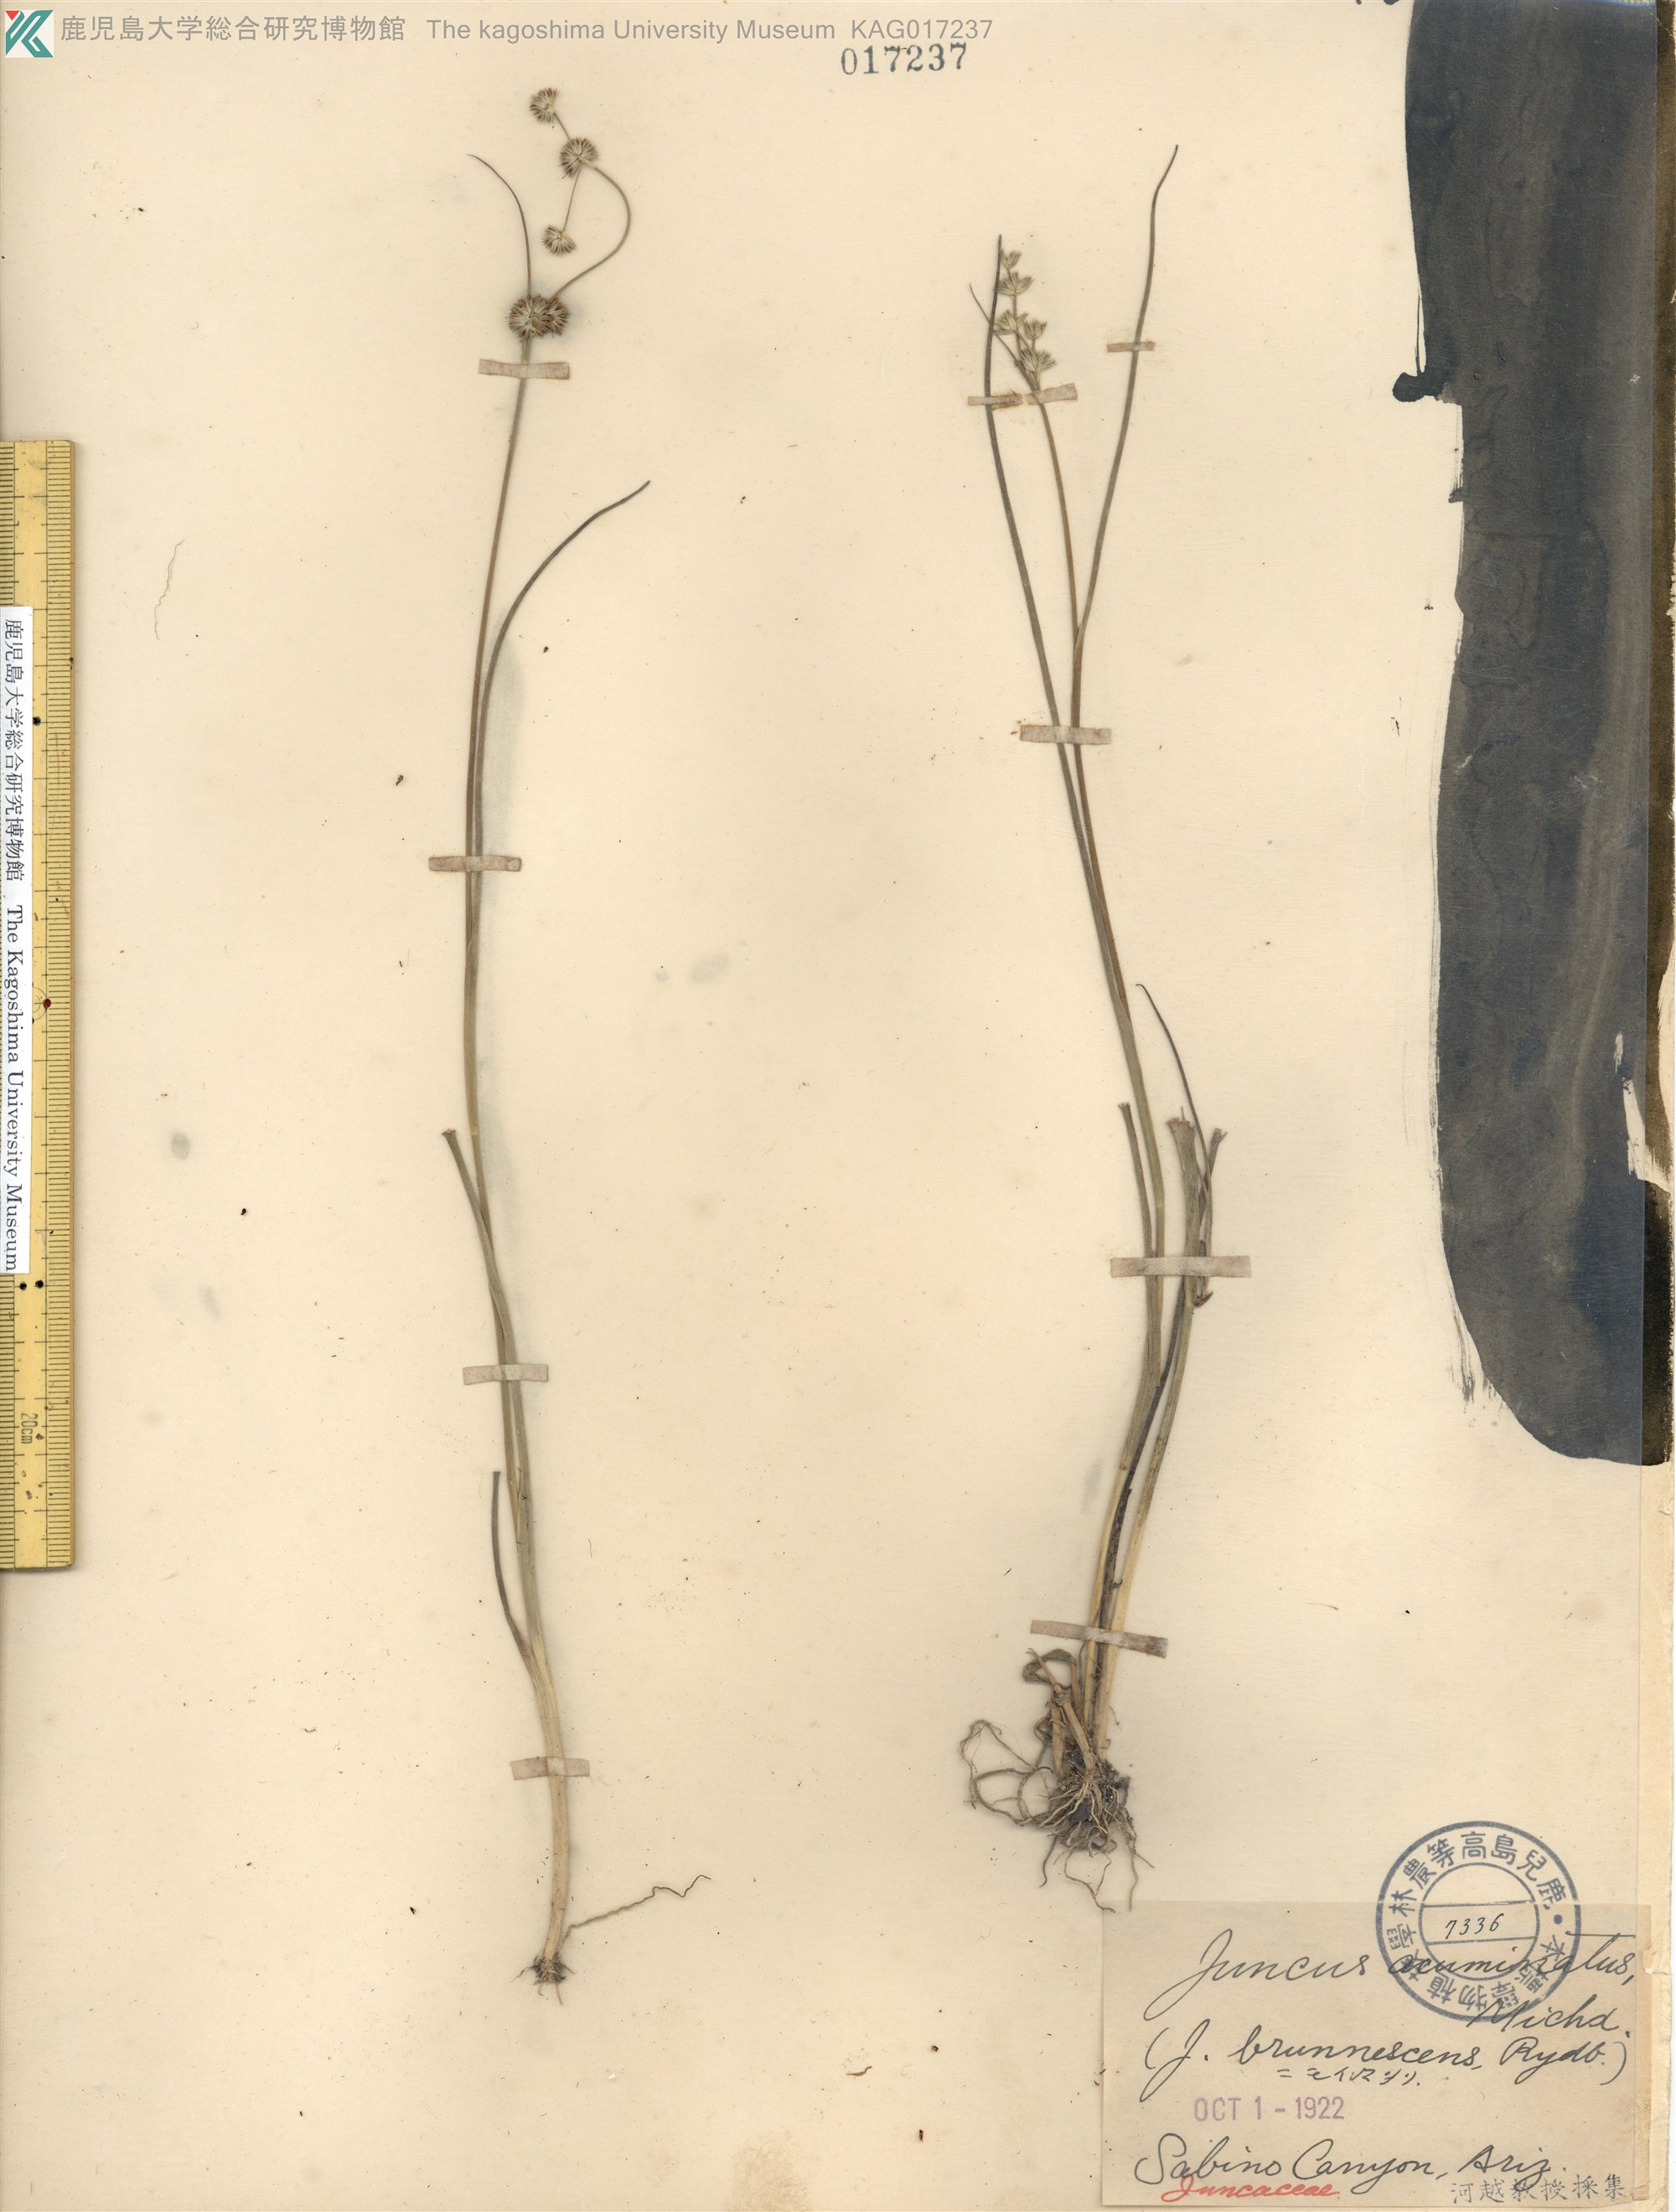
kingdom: Plantae
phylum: Tracheophyta
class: Liliopsida
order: Poales
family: Juncaceae
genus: Juncus
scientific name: Juncus acuminatus
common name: Knotty-leaved rush
